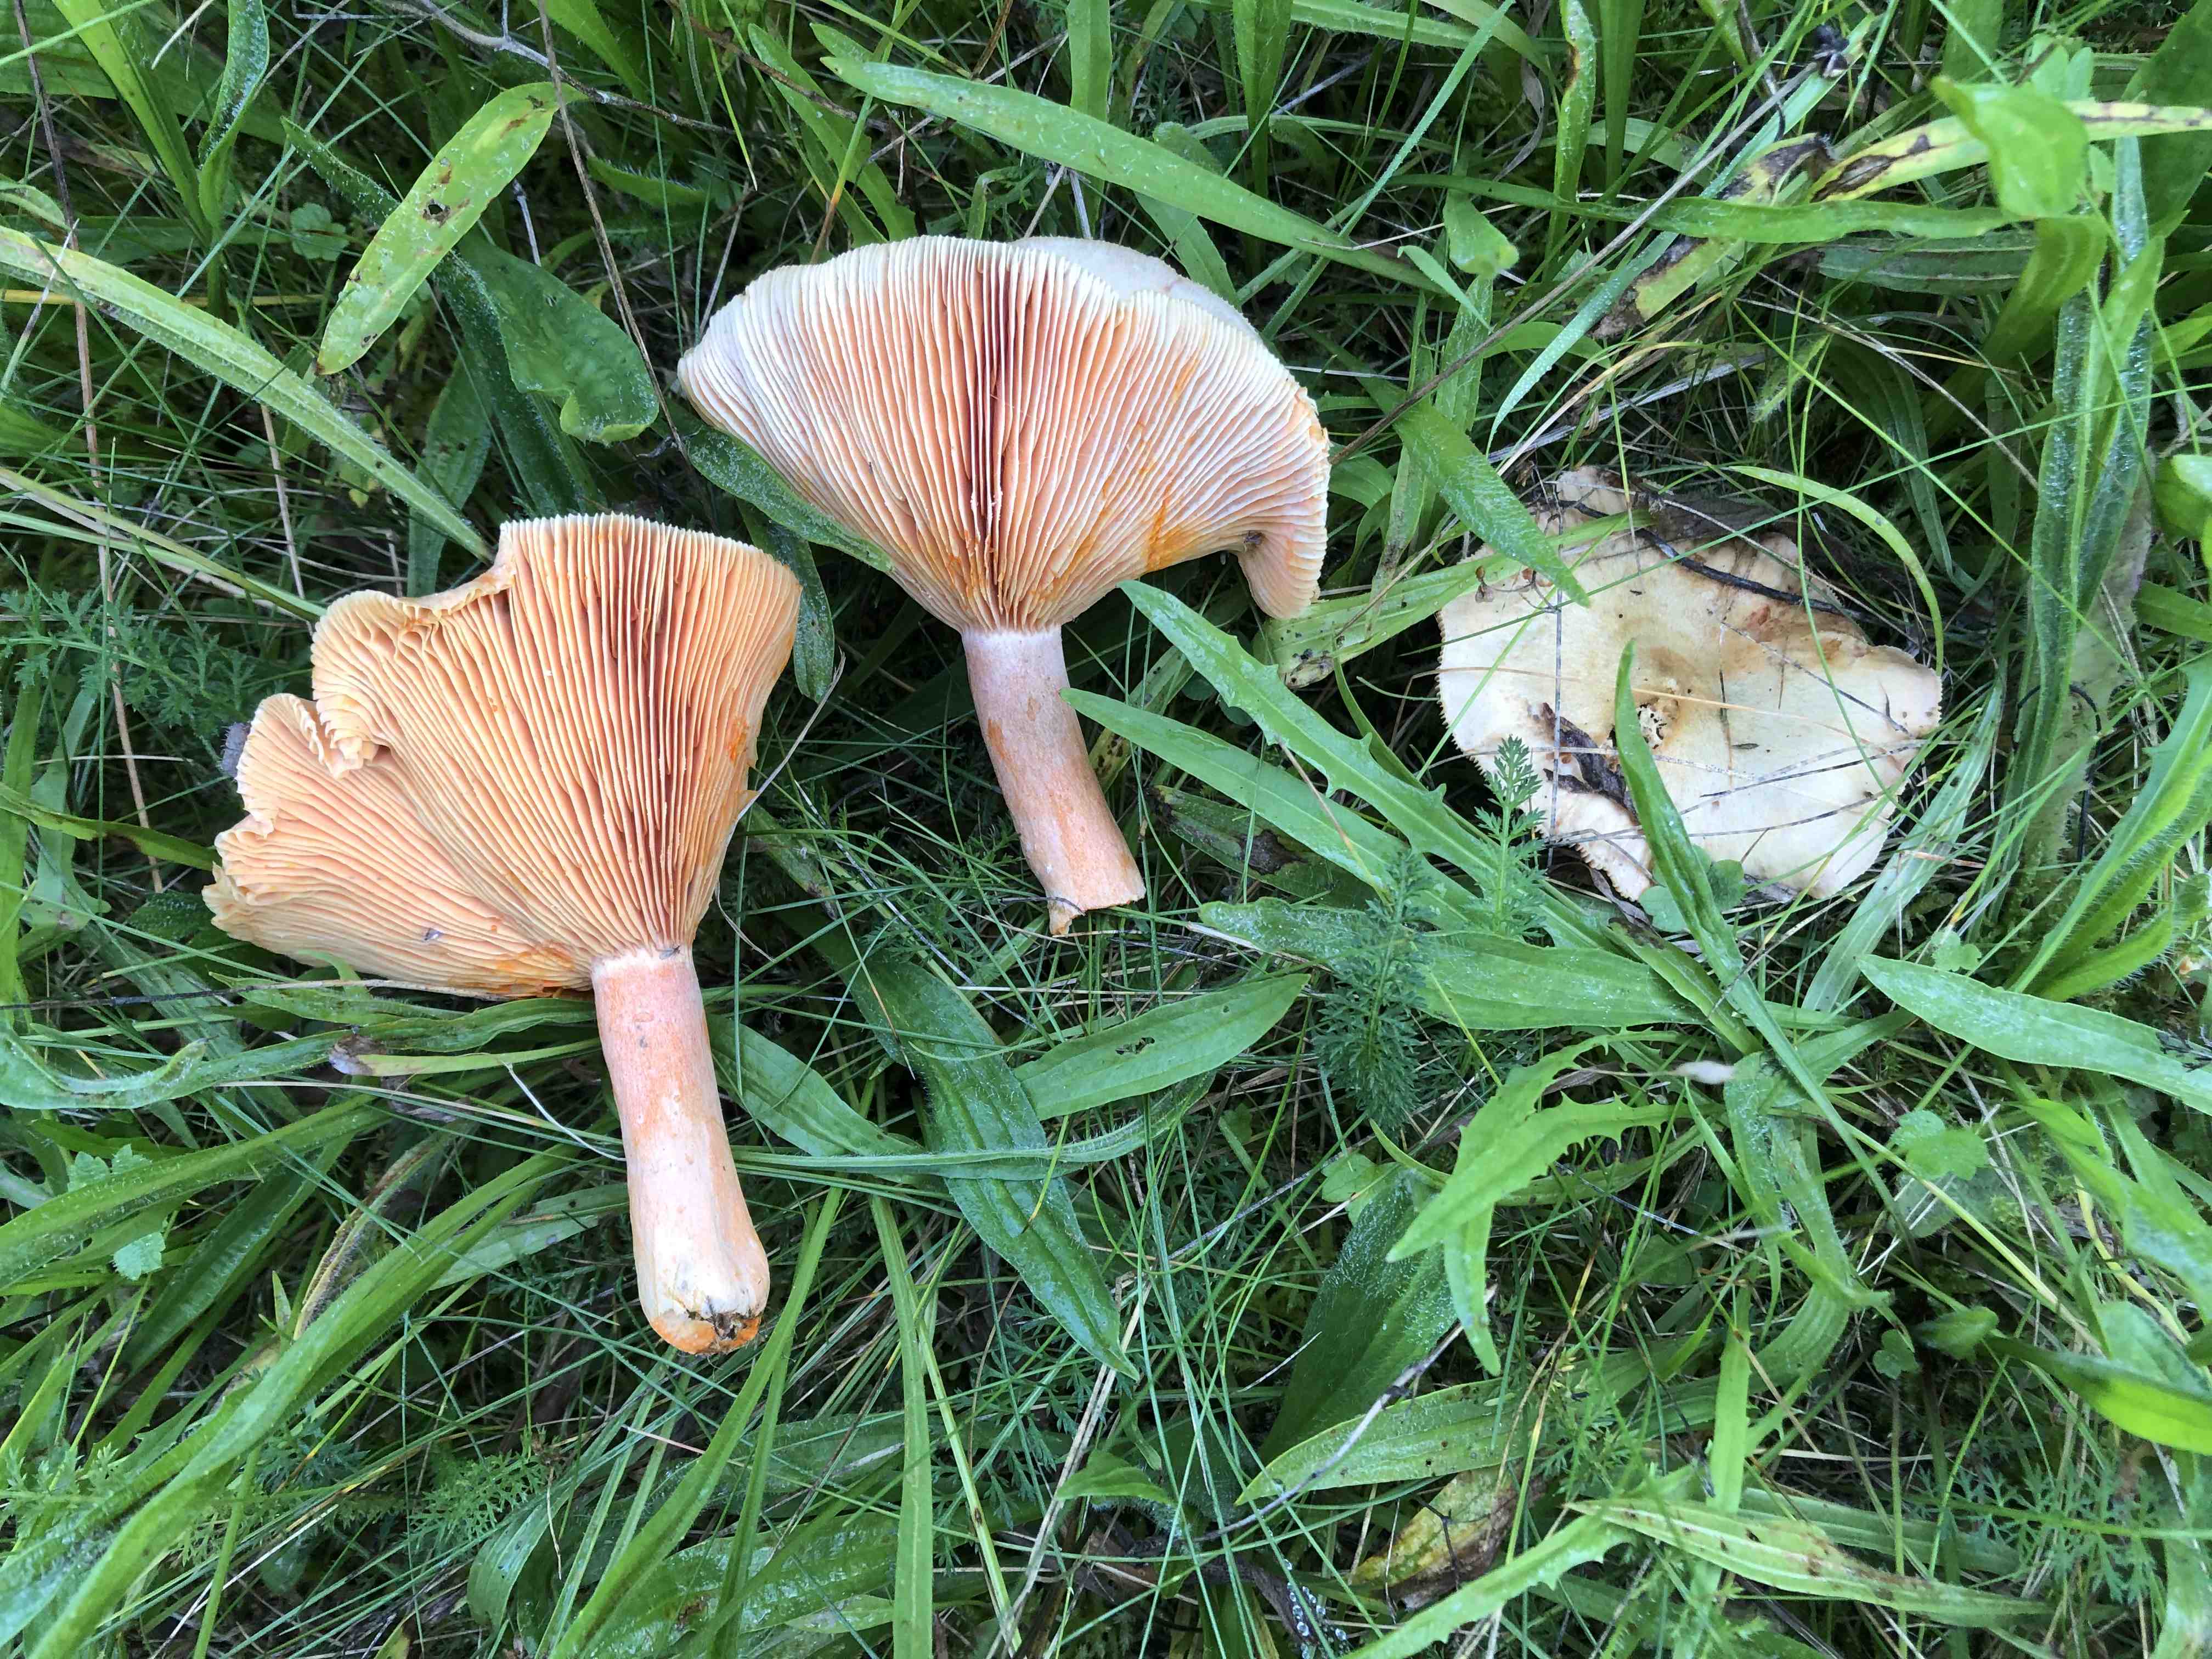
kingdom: Fungi
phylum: Basidiomycota
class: Agaricomycetes
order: Russulales
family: Russulaceae
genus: Lactarius
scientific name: Lactarius deterrimus
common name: gran-mælkehat
